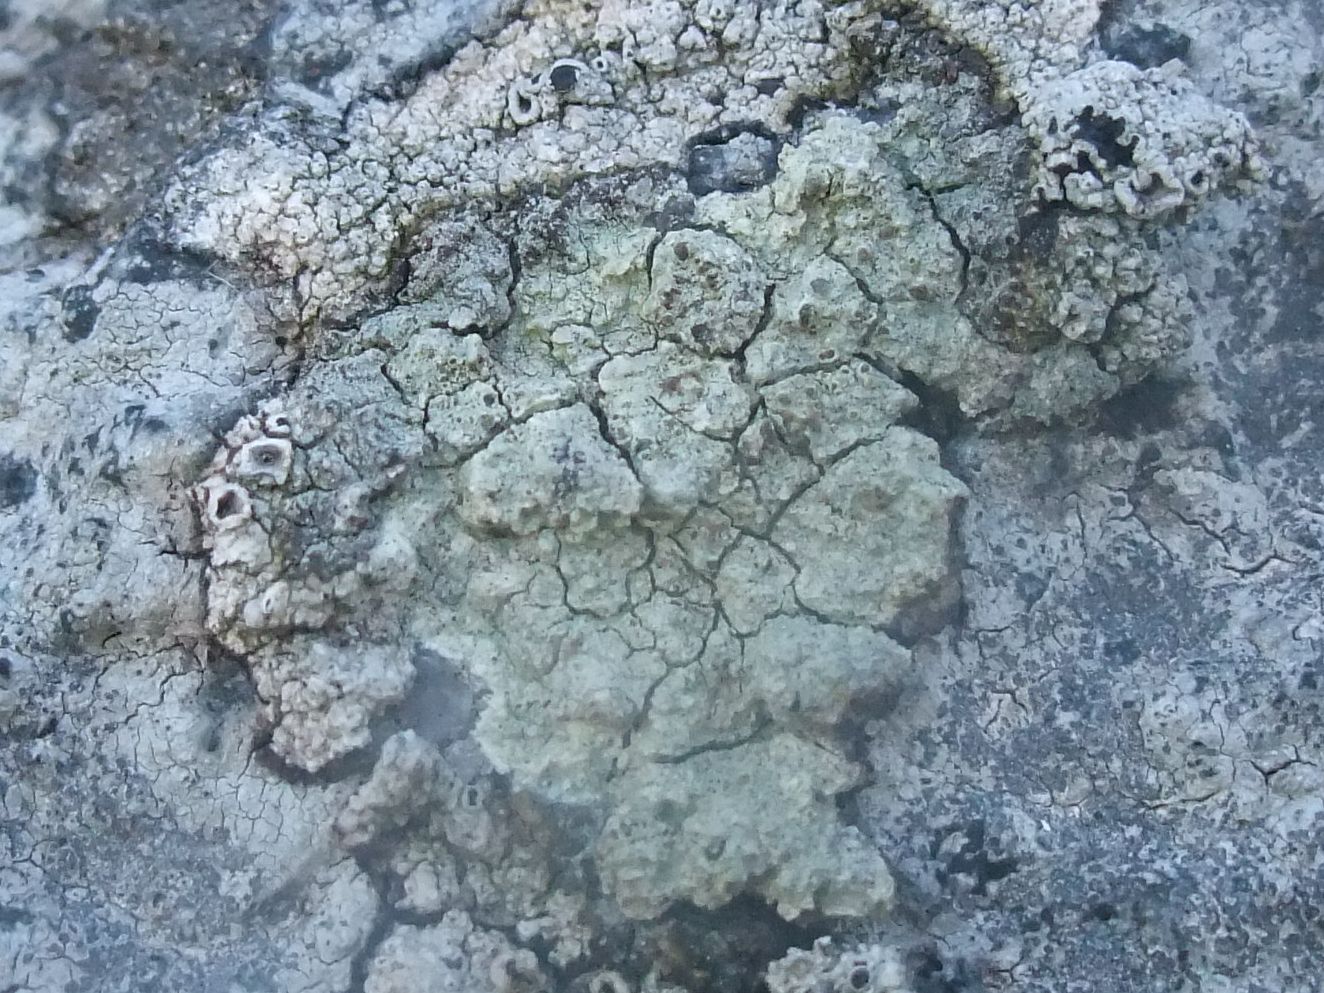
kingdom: Fungi
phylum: Ascomycota
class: Lecanoromycetes
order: Lecanorales
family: Lecanoraceae
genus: Glaucomaria
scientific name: Glaucomaria sulphurea
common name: svovlgul kantskivelav
